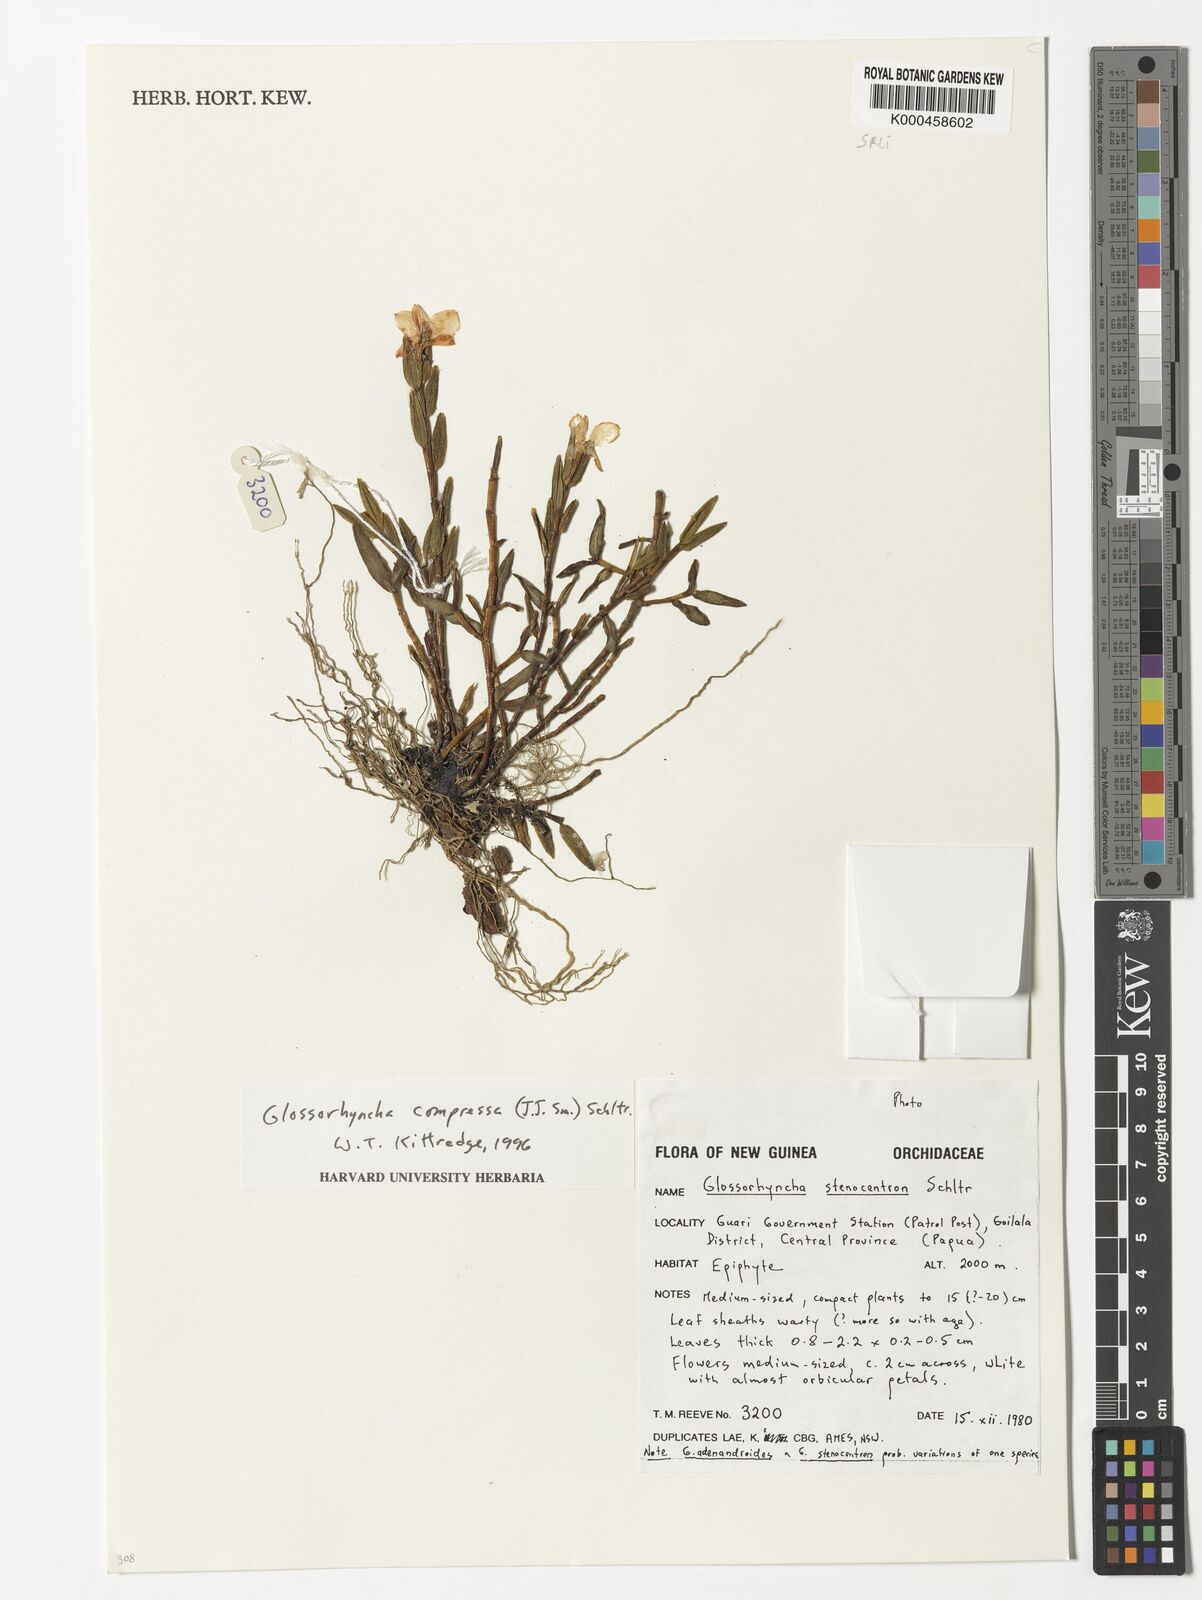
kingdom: Plantae
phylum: Tracheophyta
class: Liliopsida
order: Asparagales
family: Orchidaceae
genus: Glomera
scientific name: Glomera compressa
